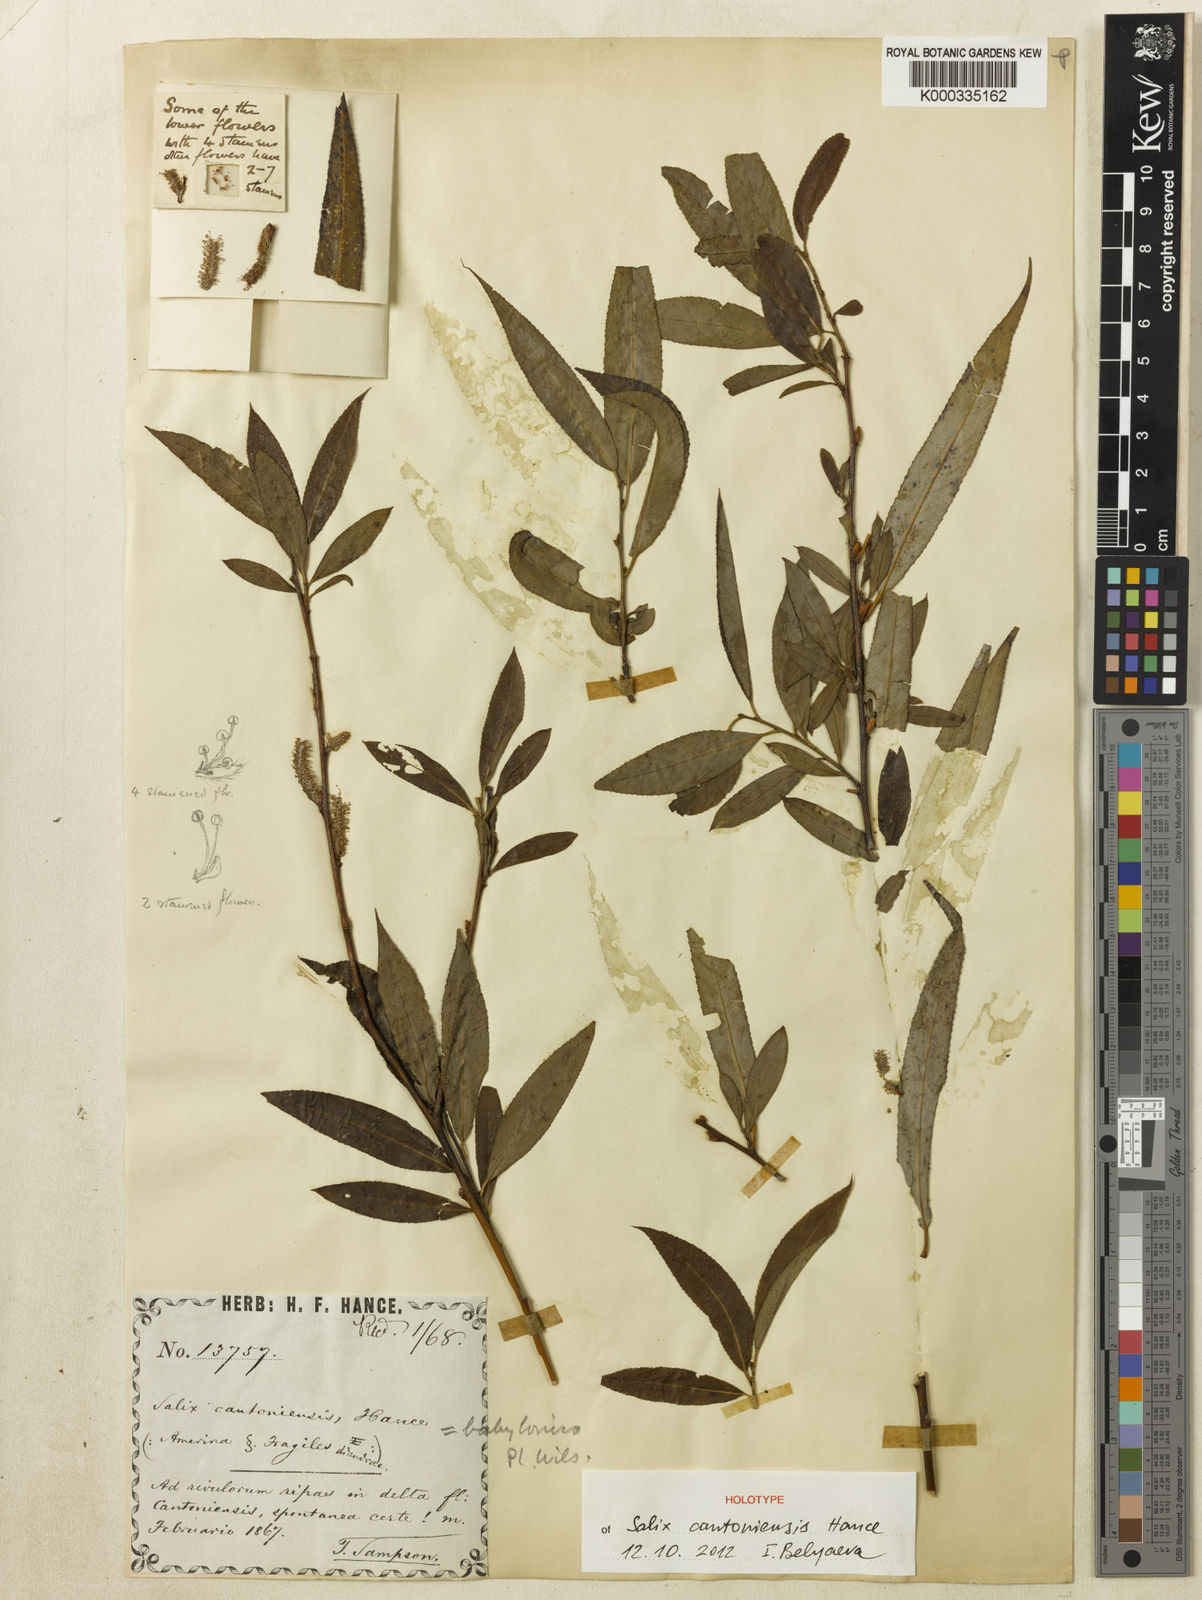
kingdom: Plantae
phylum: Tracheophyta
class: Magnoliopsida
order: Malpighiales
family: Salicaceae
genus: Salix
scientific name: Salix babylonica
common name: Weeping willow
